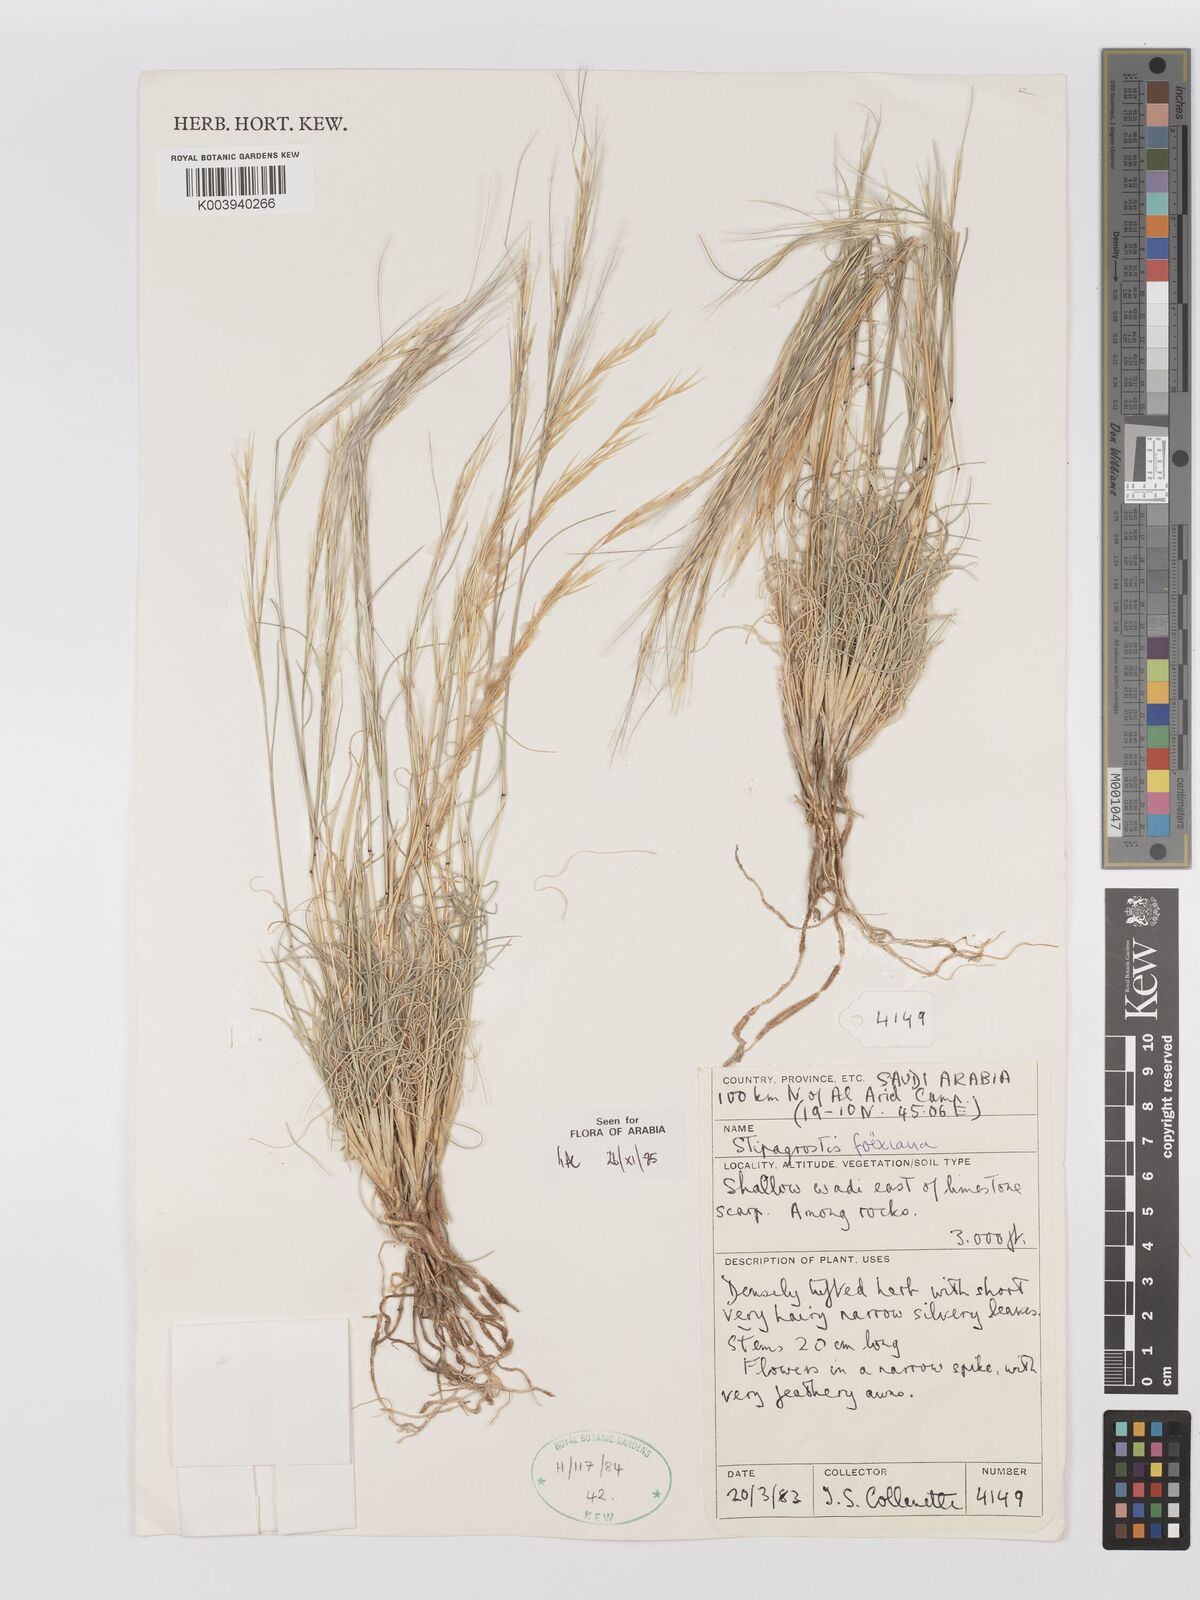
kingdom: Plantae
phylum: Tracheophyta
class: Liliopsida
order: Poales
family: Poaceae
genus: Stipagrostis
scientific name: Stipagrostis foexiana
